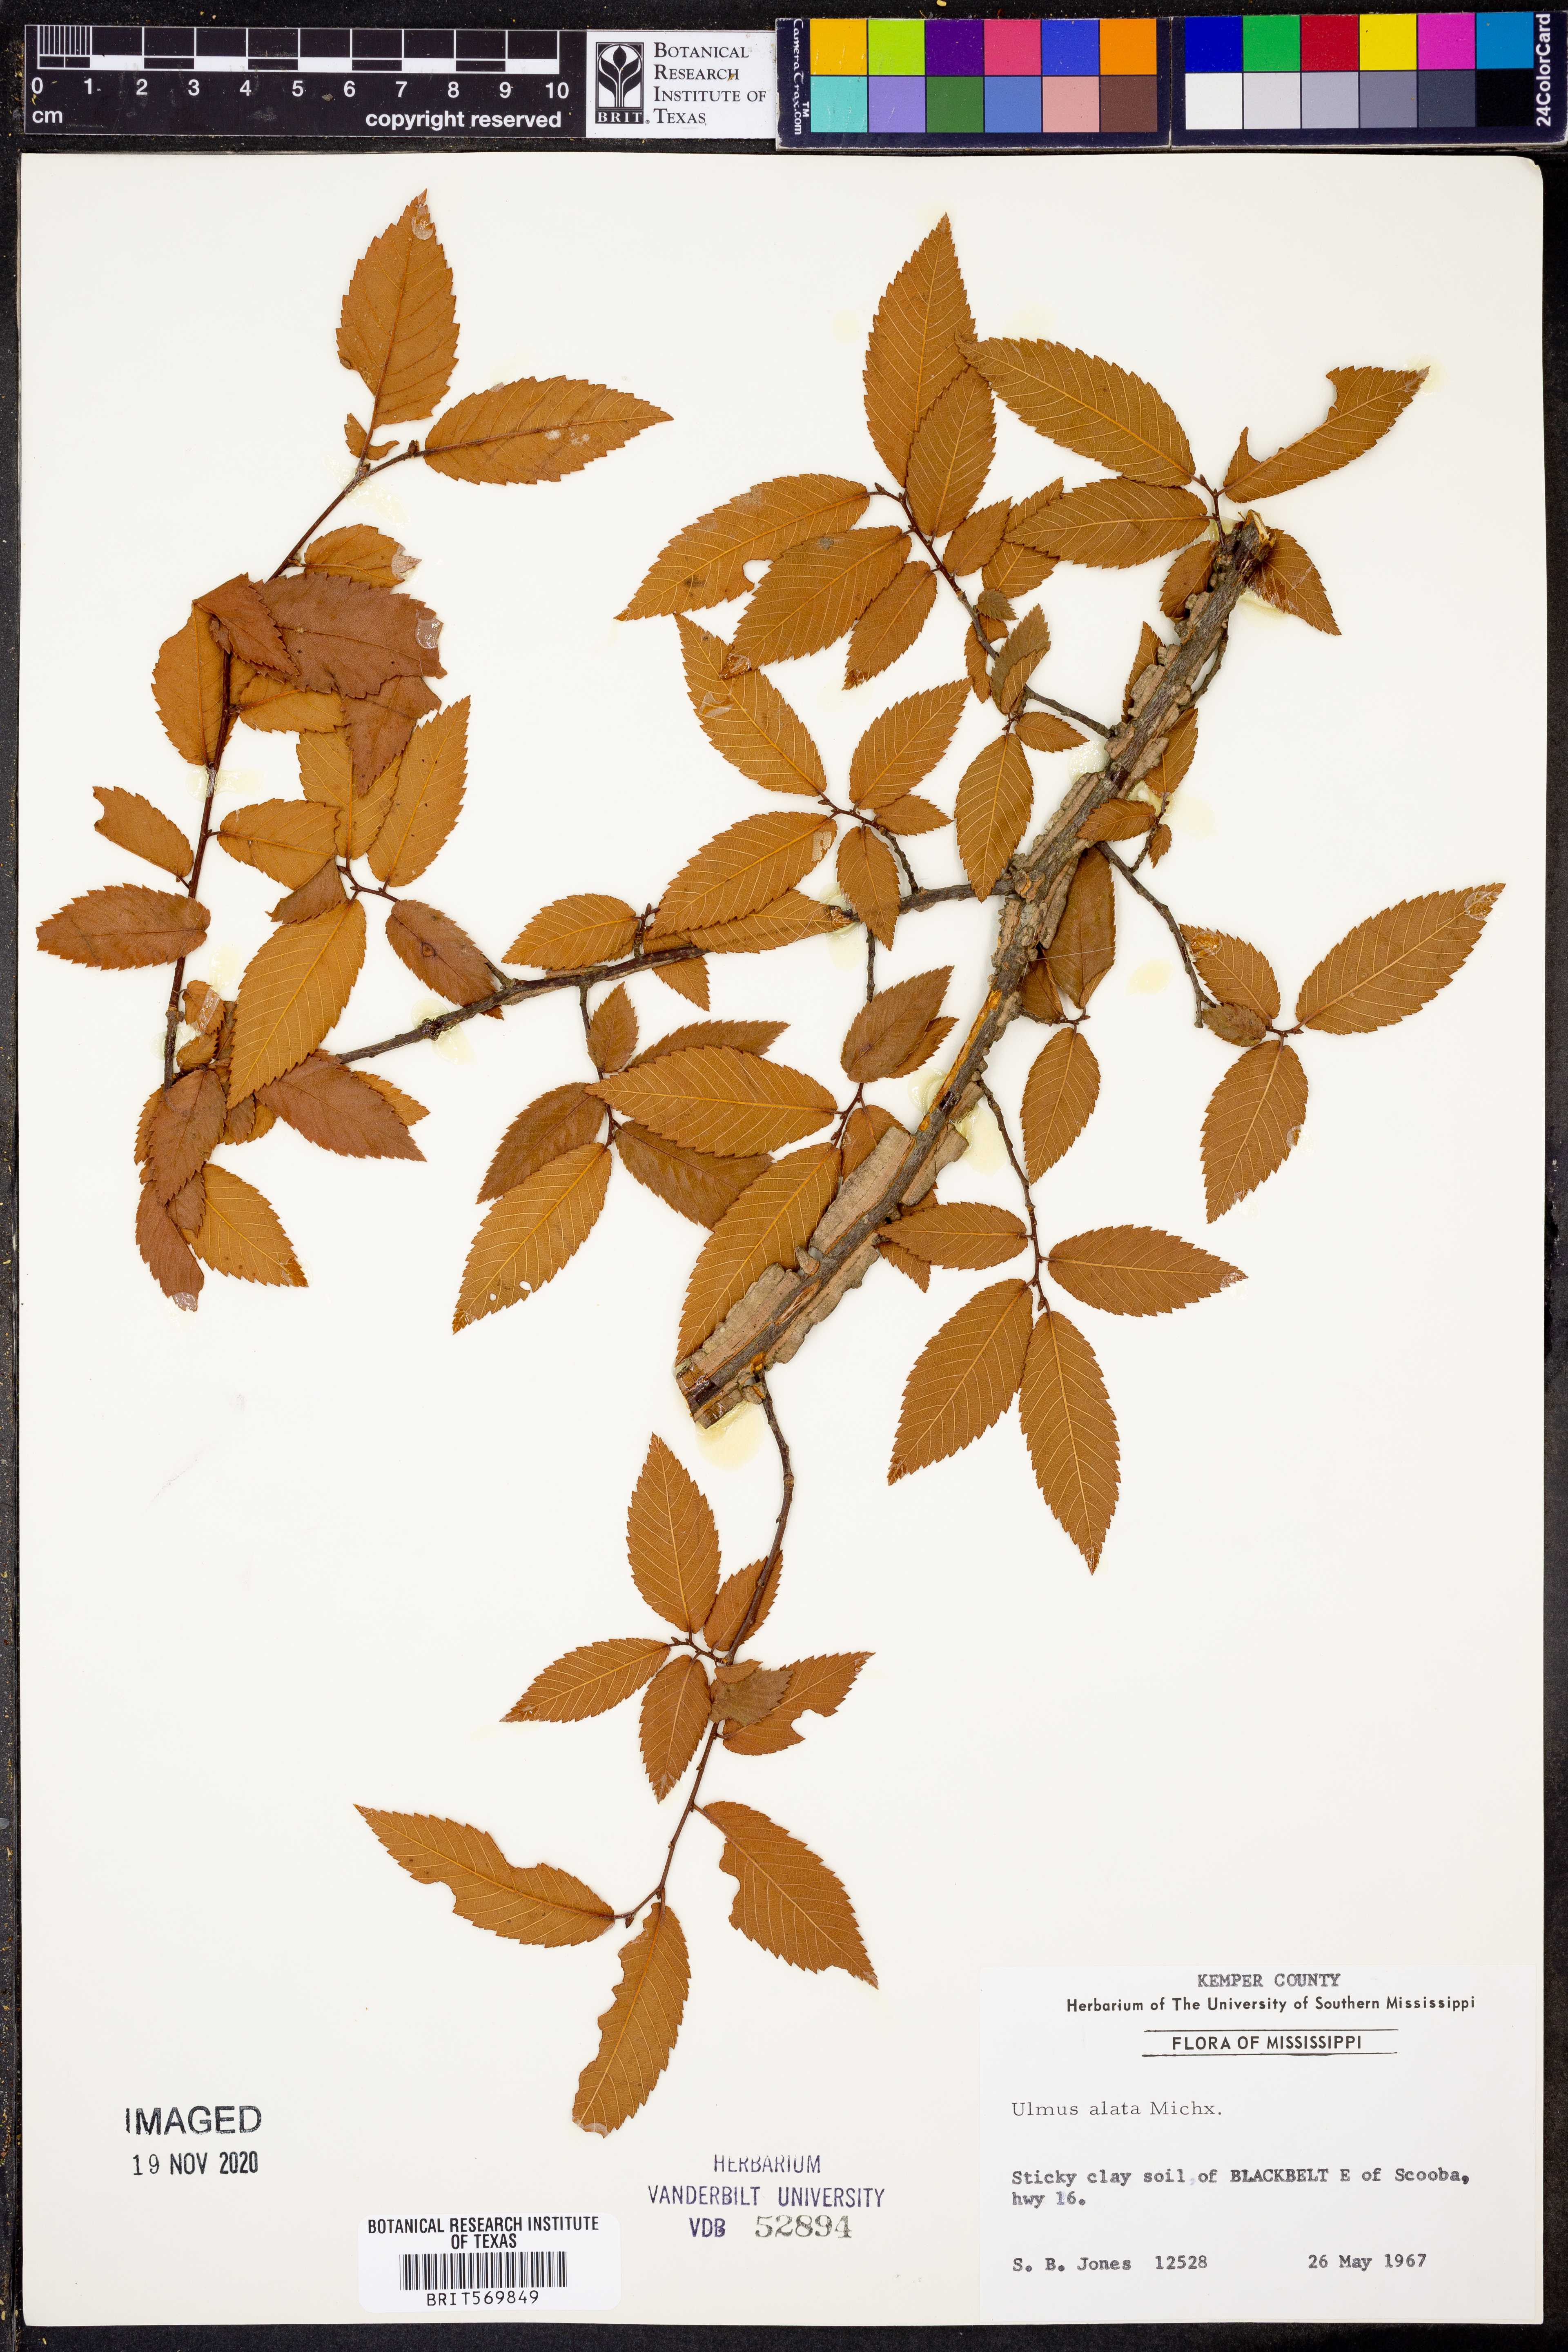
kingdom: Plantae
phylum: Tracheophyta
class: Magnoliopsida
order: Rosales
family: Ulmaceae
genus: Ulmus
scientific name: Ulmus alata
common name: Winged elm
